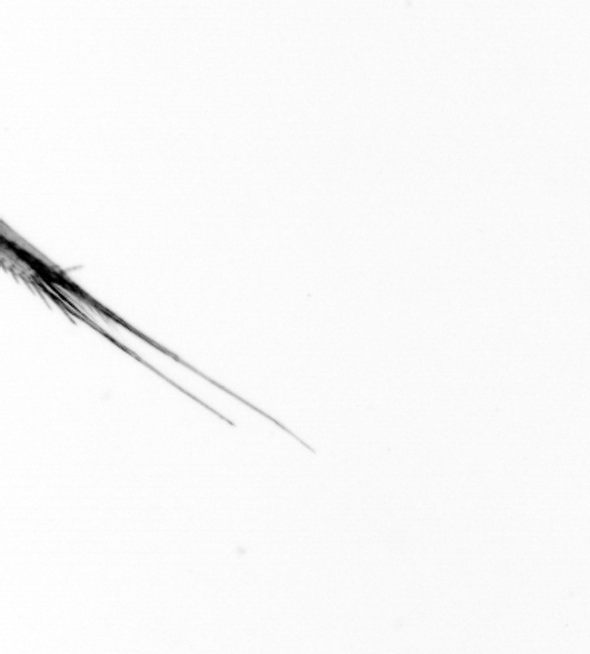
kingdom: Animalia
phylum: Arthropoda
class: Copepoda
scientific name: Copepoda
